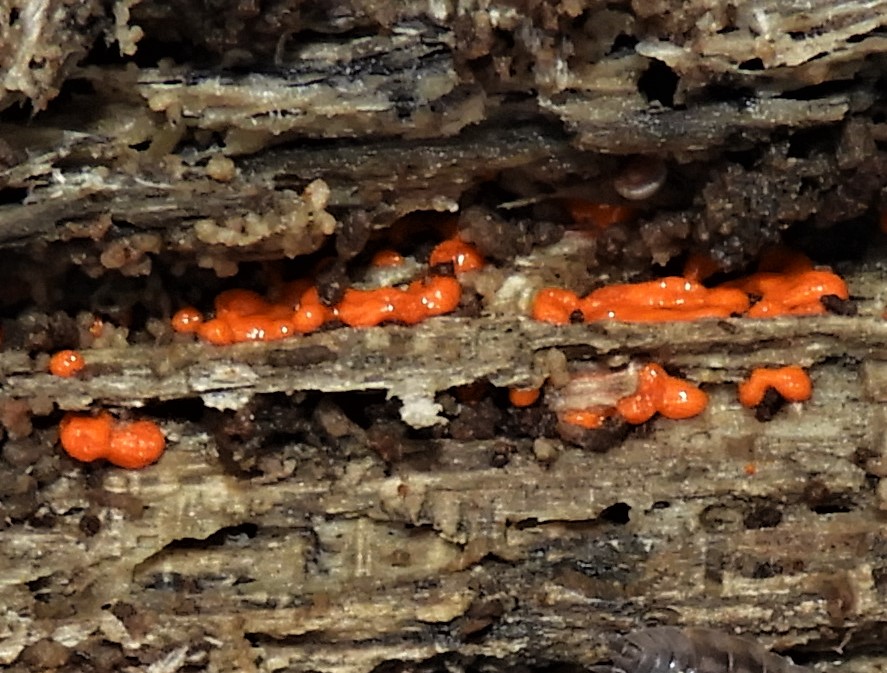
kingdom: Protozoa
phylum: Mycetozoa
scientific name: Mycetozoa
